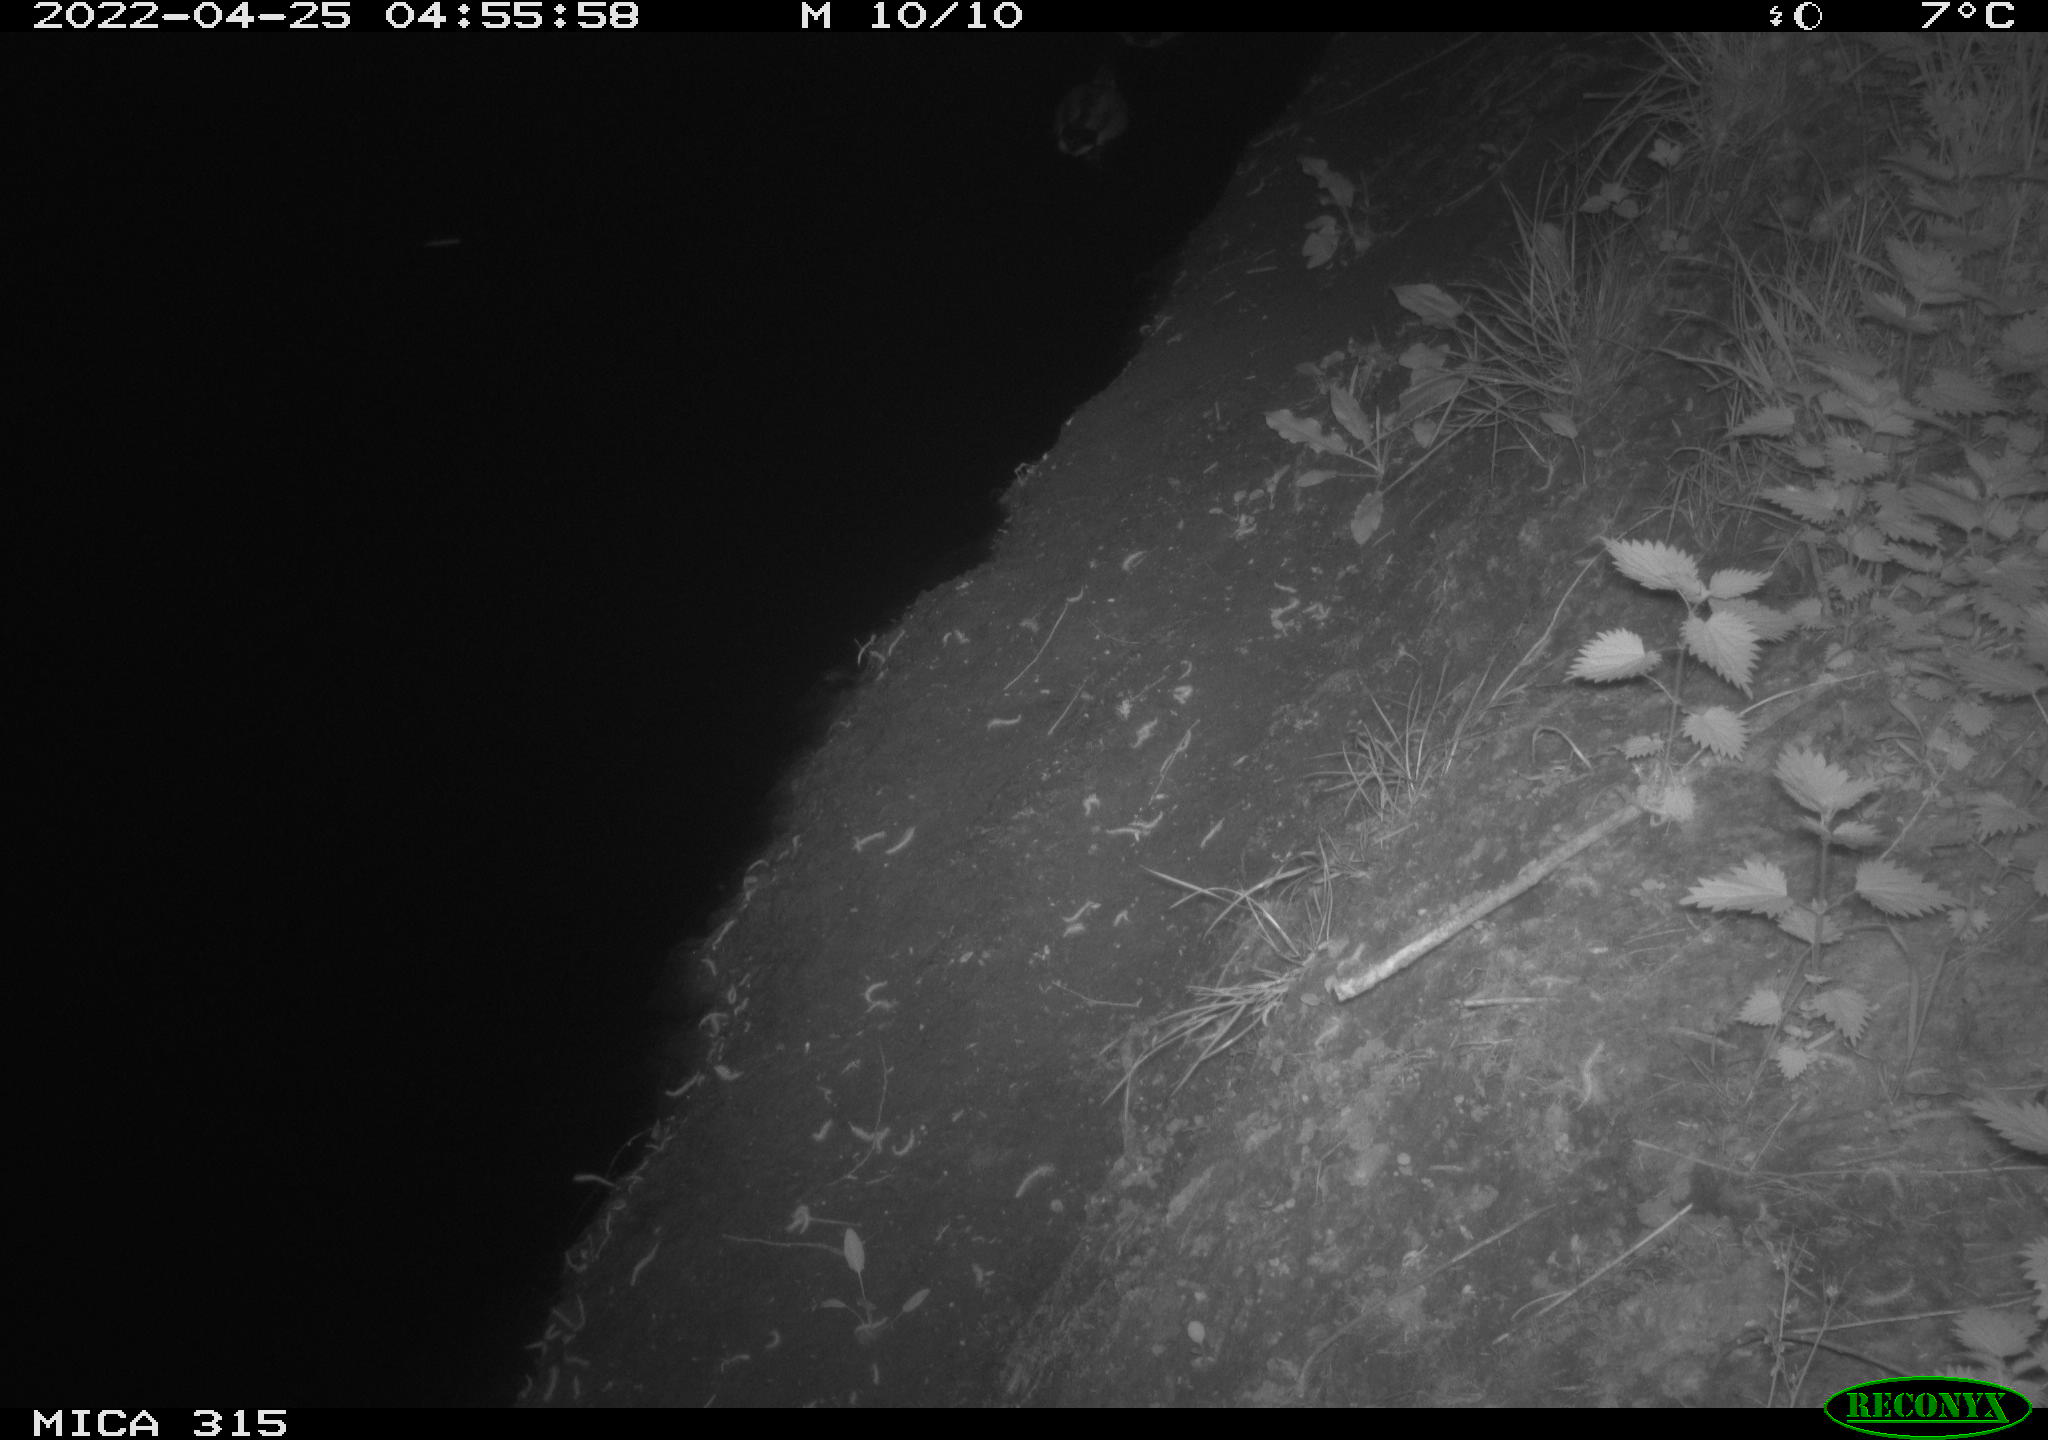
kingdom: Animalia
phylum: Chordata
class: Aves
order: Anseriformes
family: Anatidae
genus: Anas
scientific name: Anas platyrhynchos
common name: Mallard
